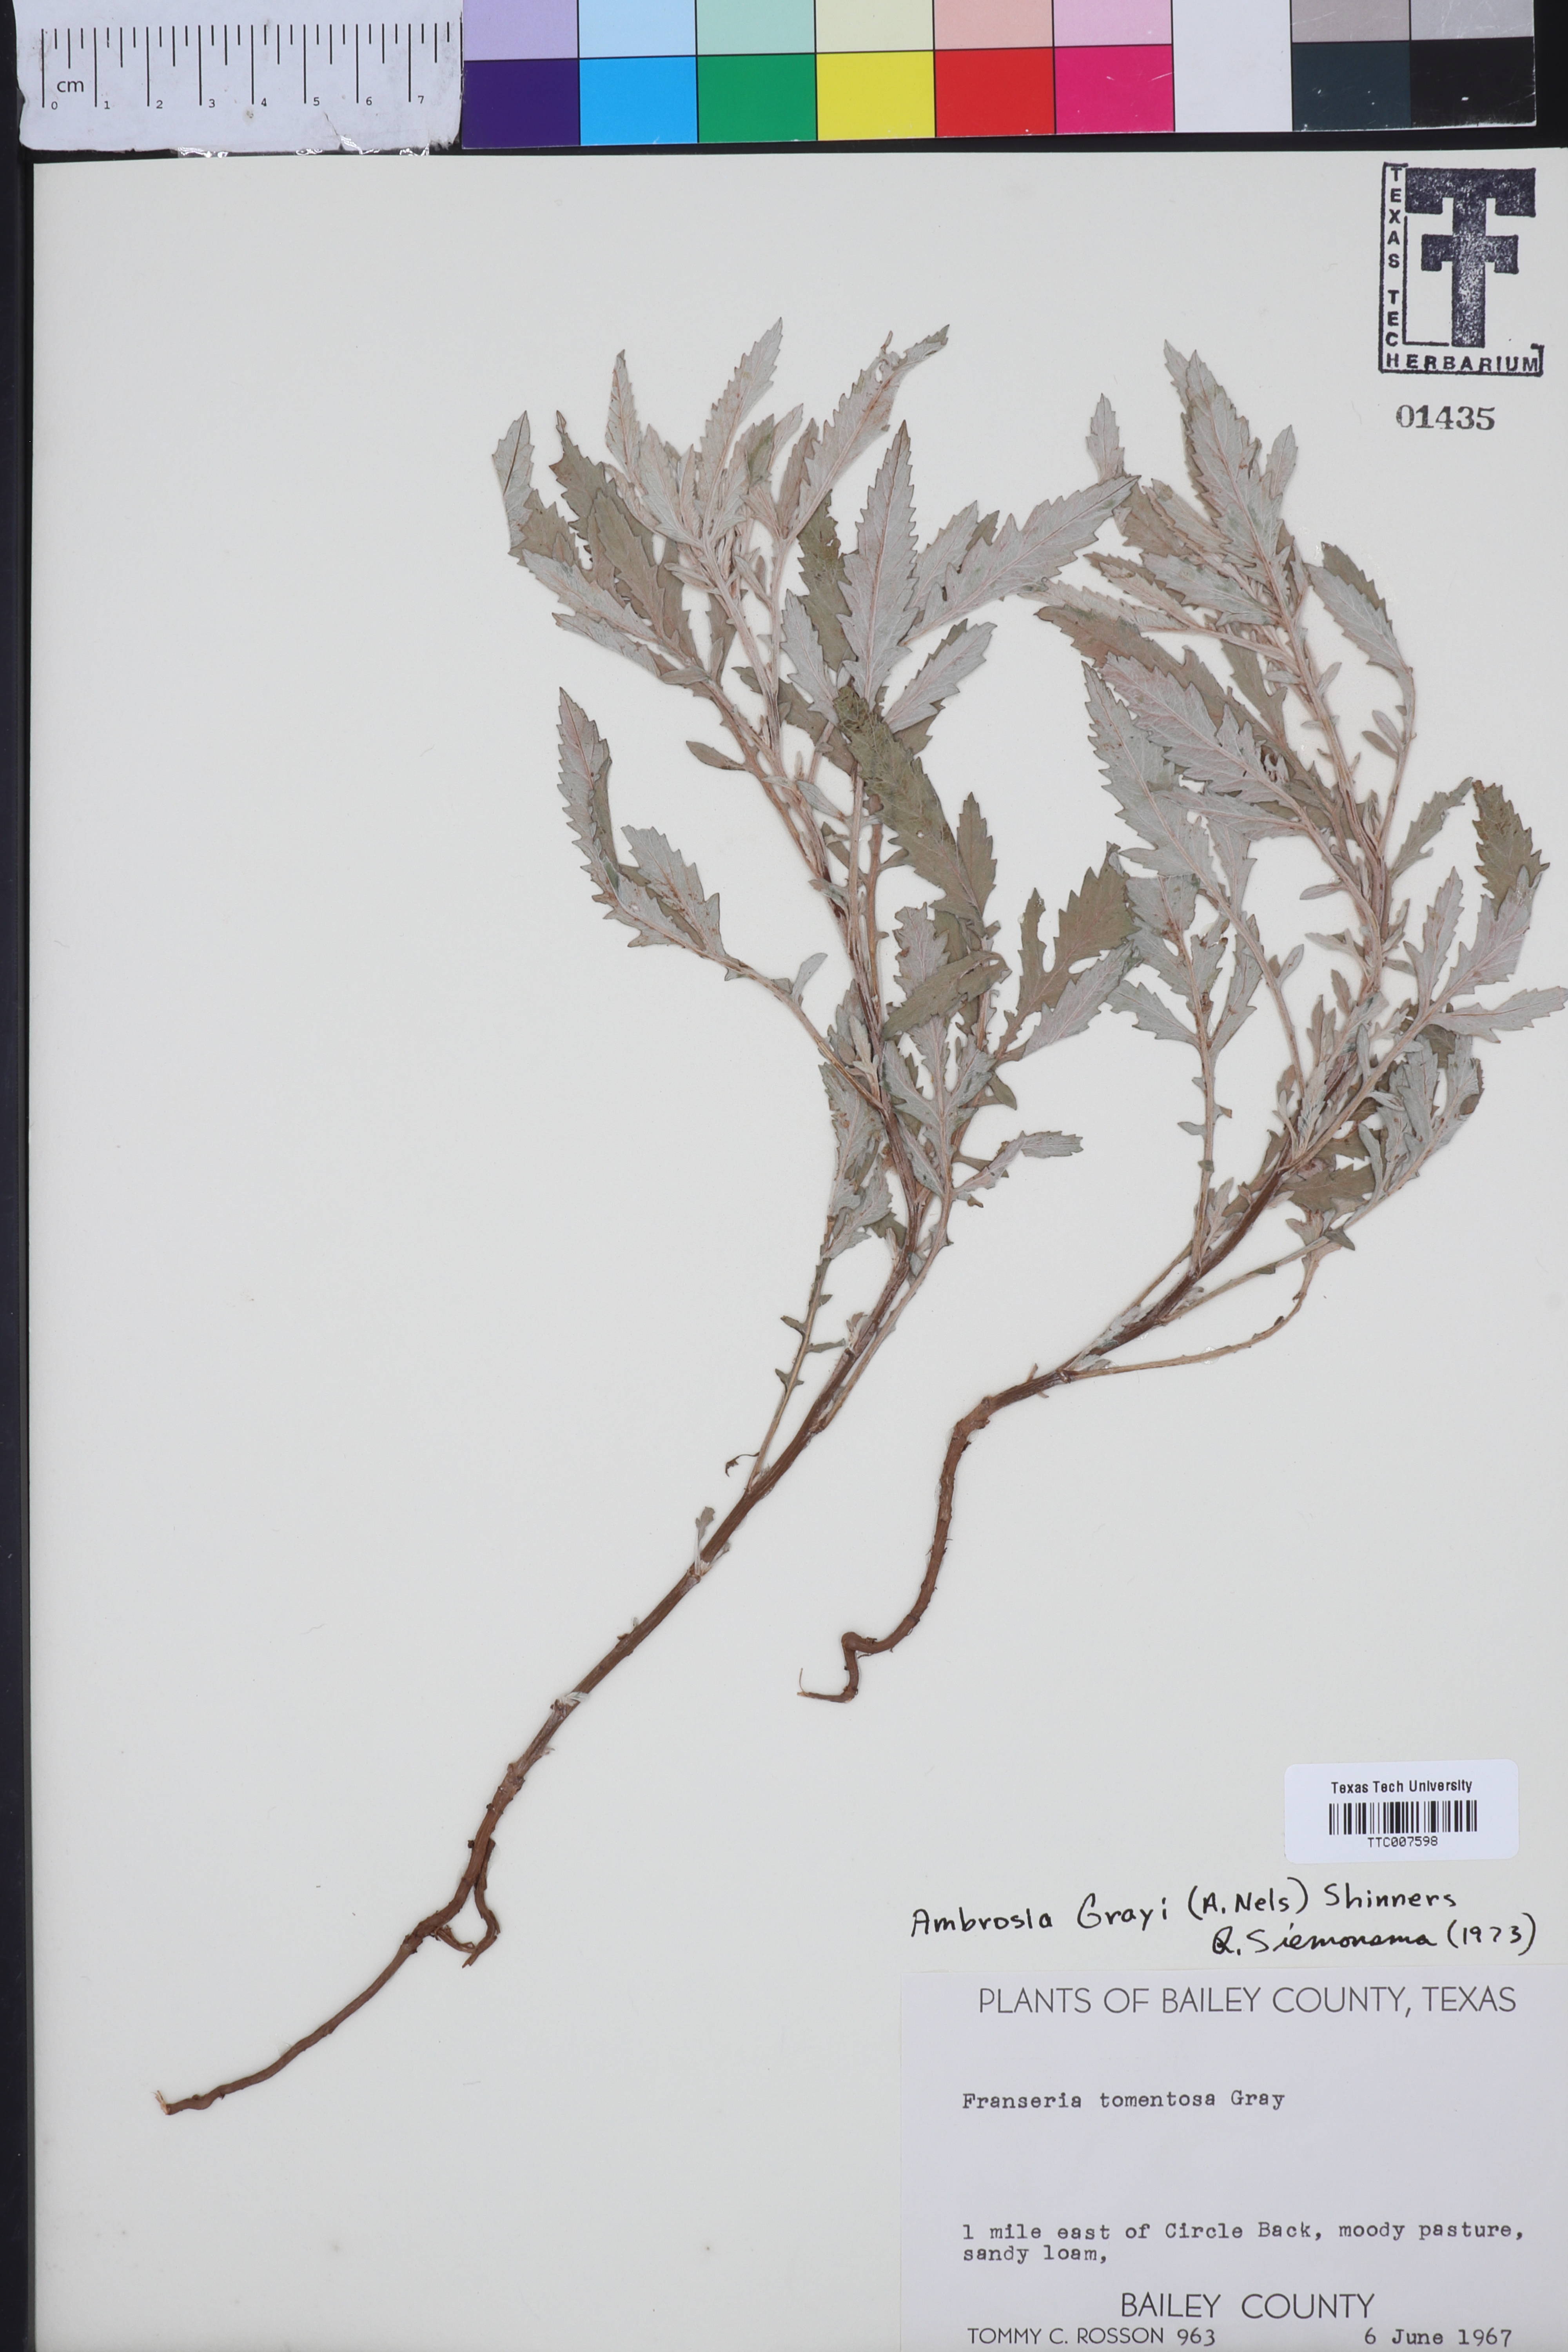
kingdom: Plantae
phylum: Tracheophyta
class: Magnoliopsida
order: Asterales
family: Asteraceae
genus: Ambrosia
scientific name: Ambrosia grayi
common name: Bur ragweed
